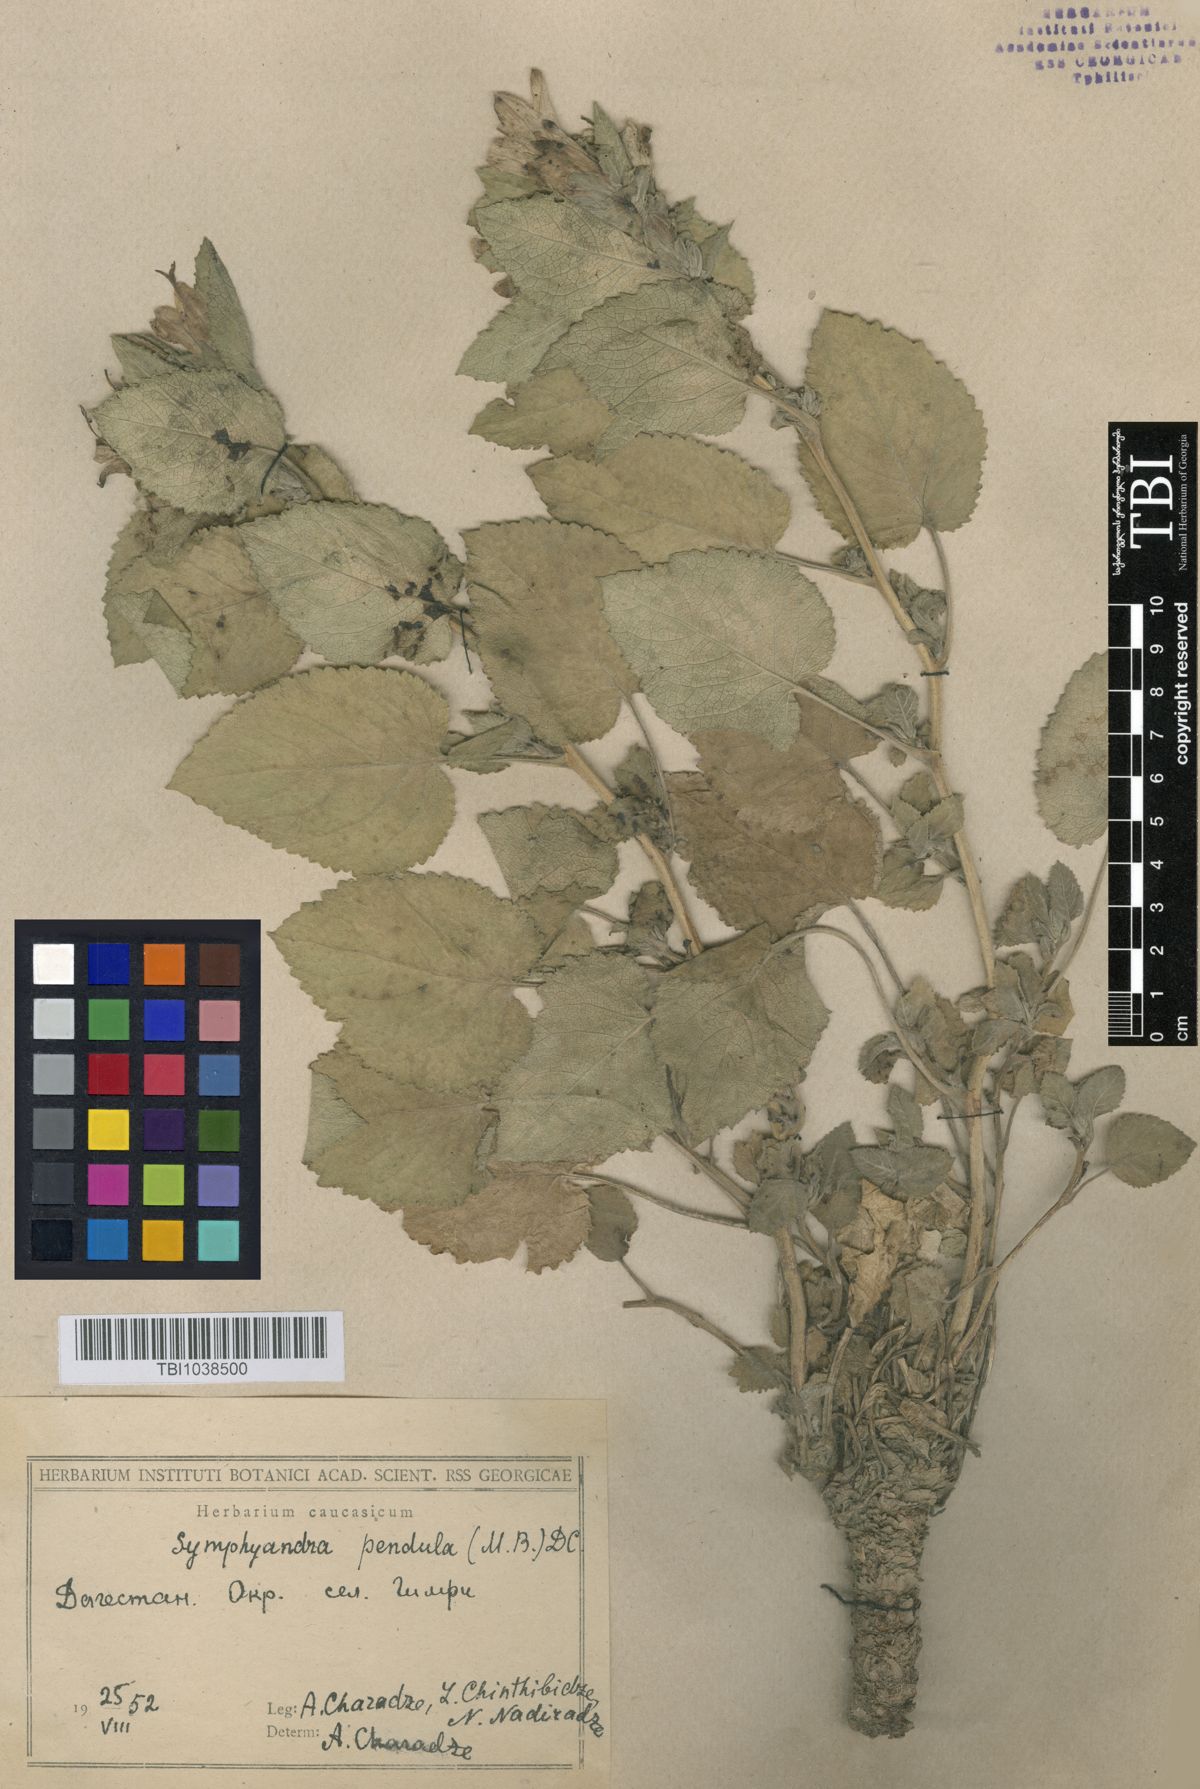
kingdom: Plantae
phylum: Tracheophyta
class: Magnoliopsida
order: Asterales
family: Campanulaceae
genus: Campanula
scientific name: Campanula pendula
